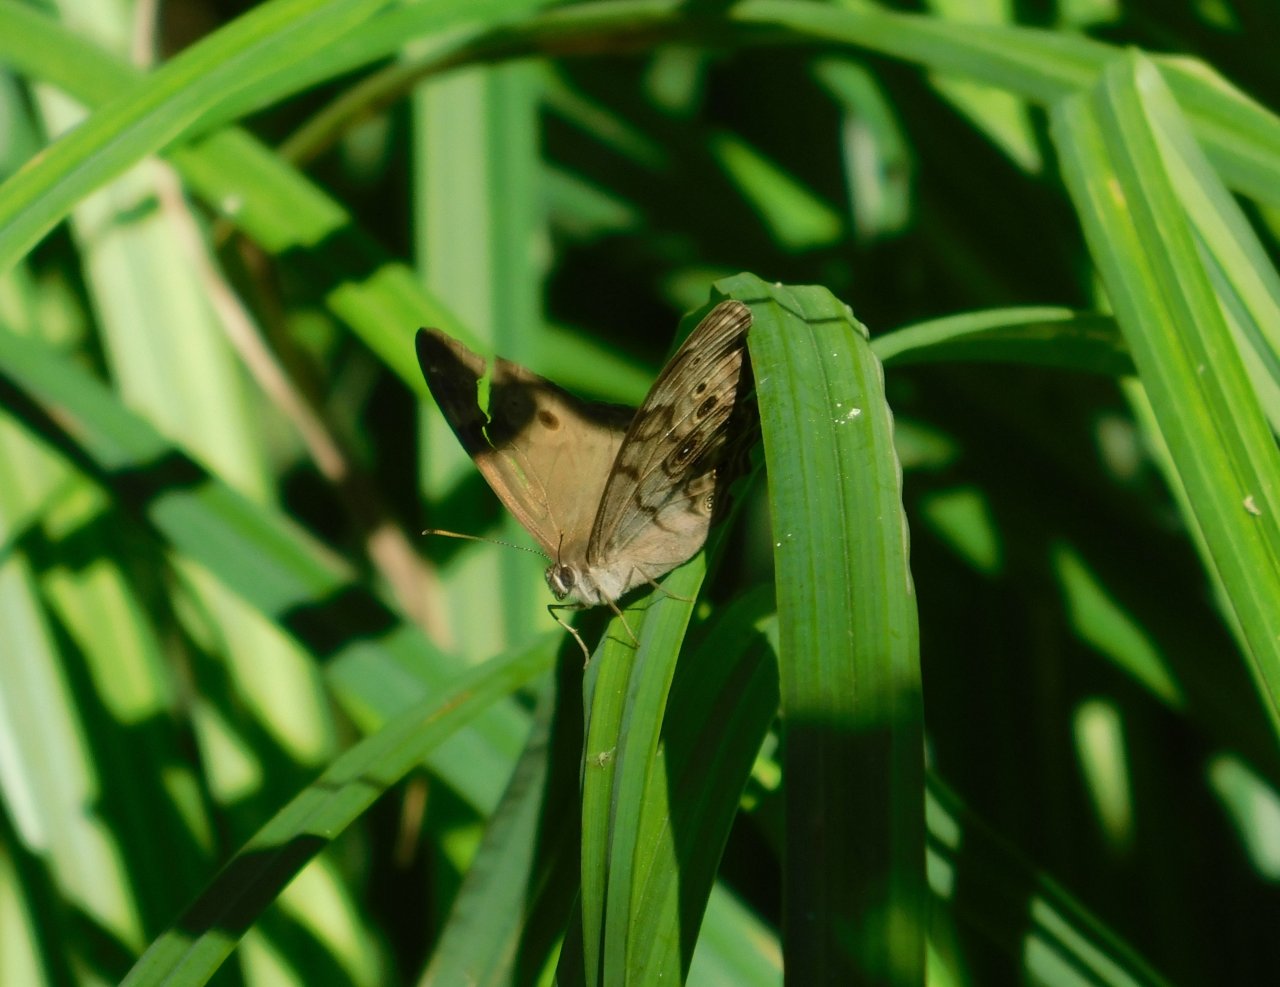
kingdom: Animalia
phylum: Arthropoda
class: Insecta
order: Lepidoptera
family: Nymphalidae
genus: Lethe
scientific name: Lethe anthedon
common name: Northern Pearly-Eye
